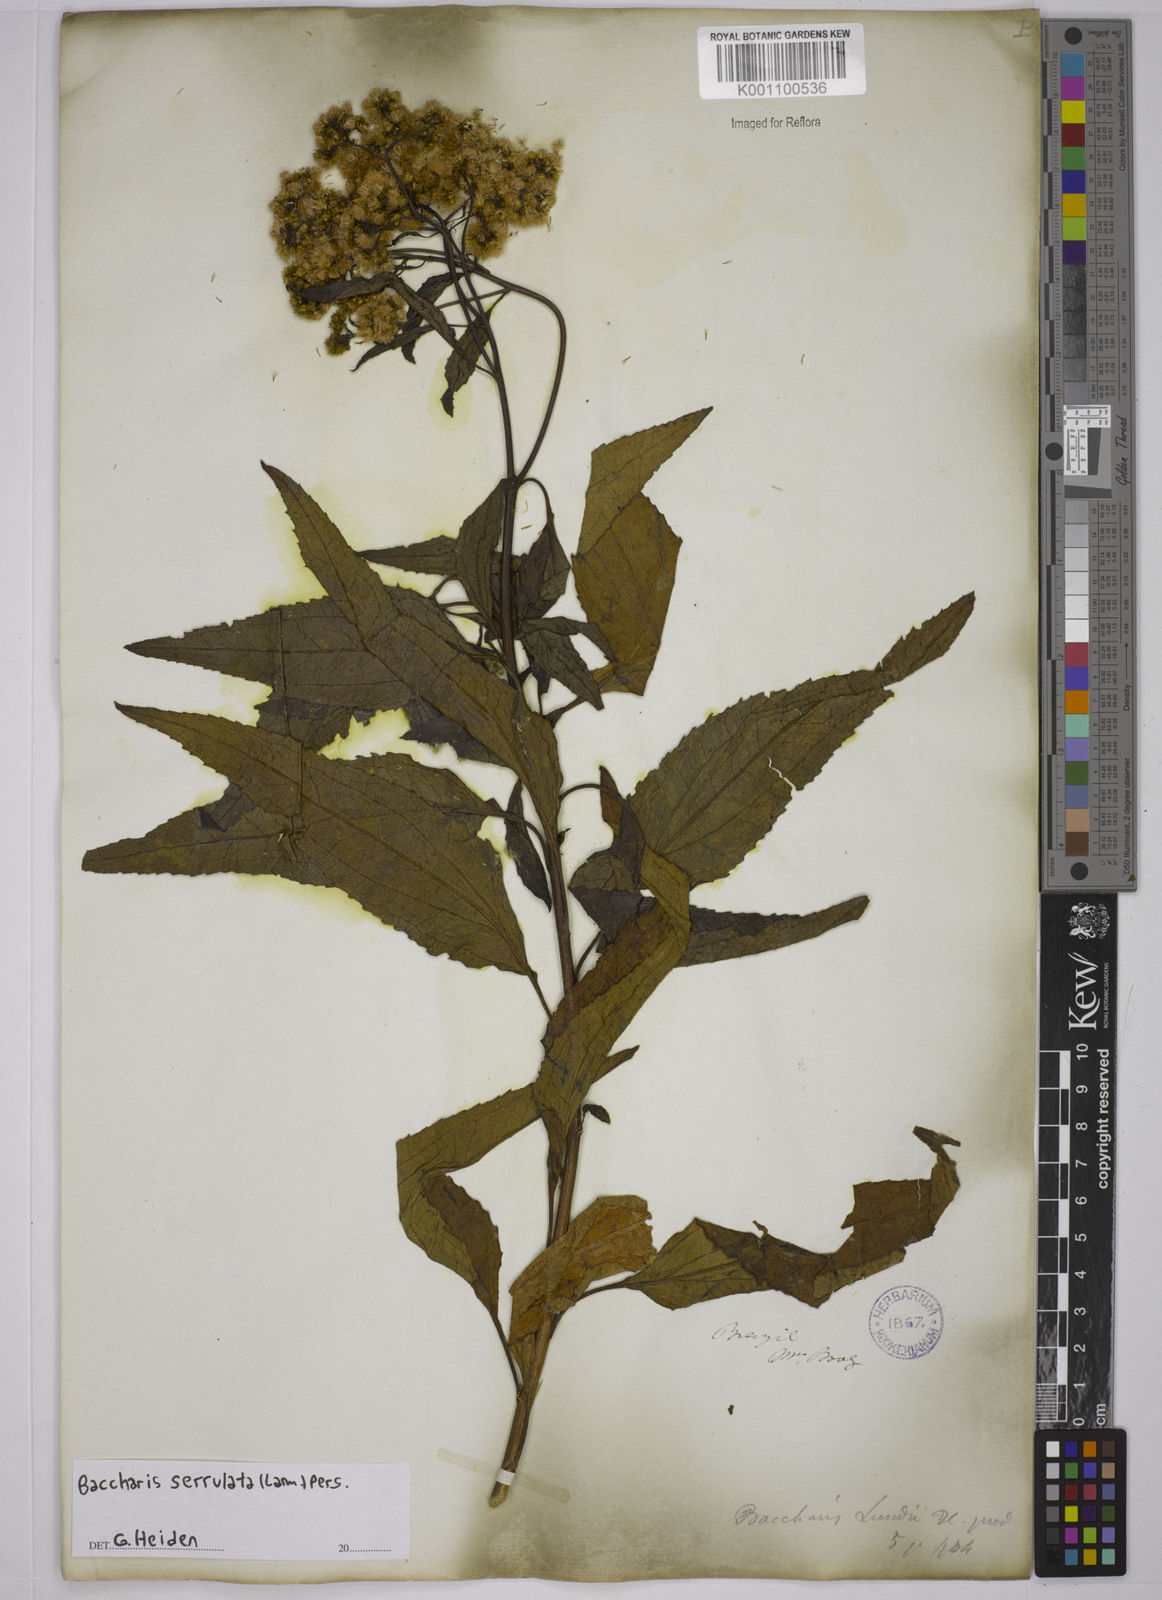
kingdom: Plantae
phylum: Tracheophyta
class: Magnoliopsida
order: Asterales
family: Asteraceae
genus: Baccharis
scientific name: Baccharis serrulata
